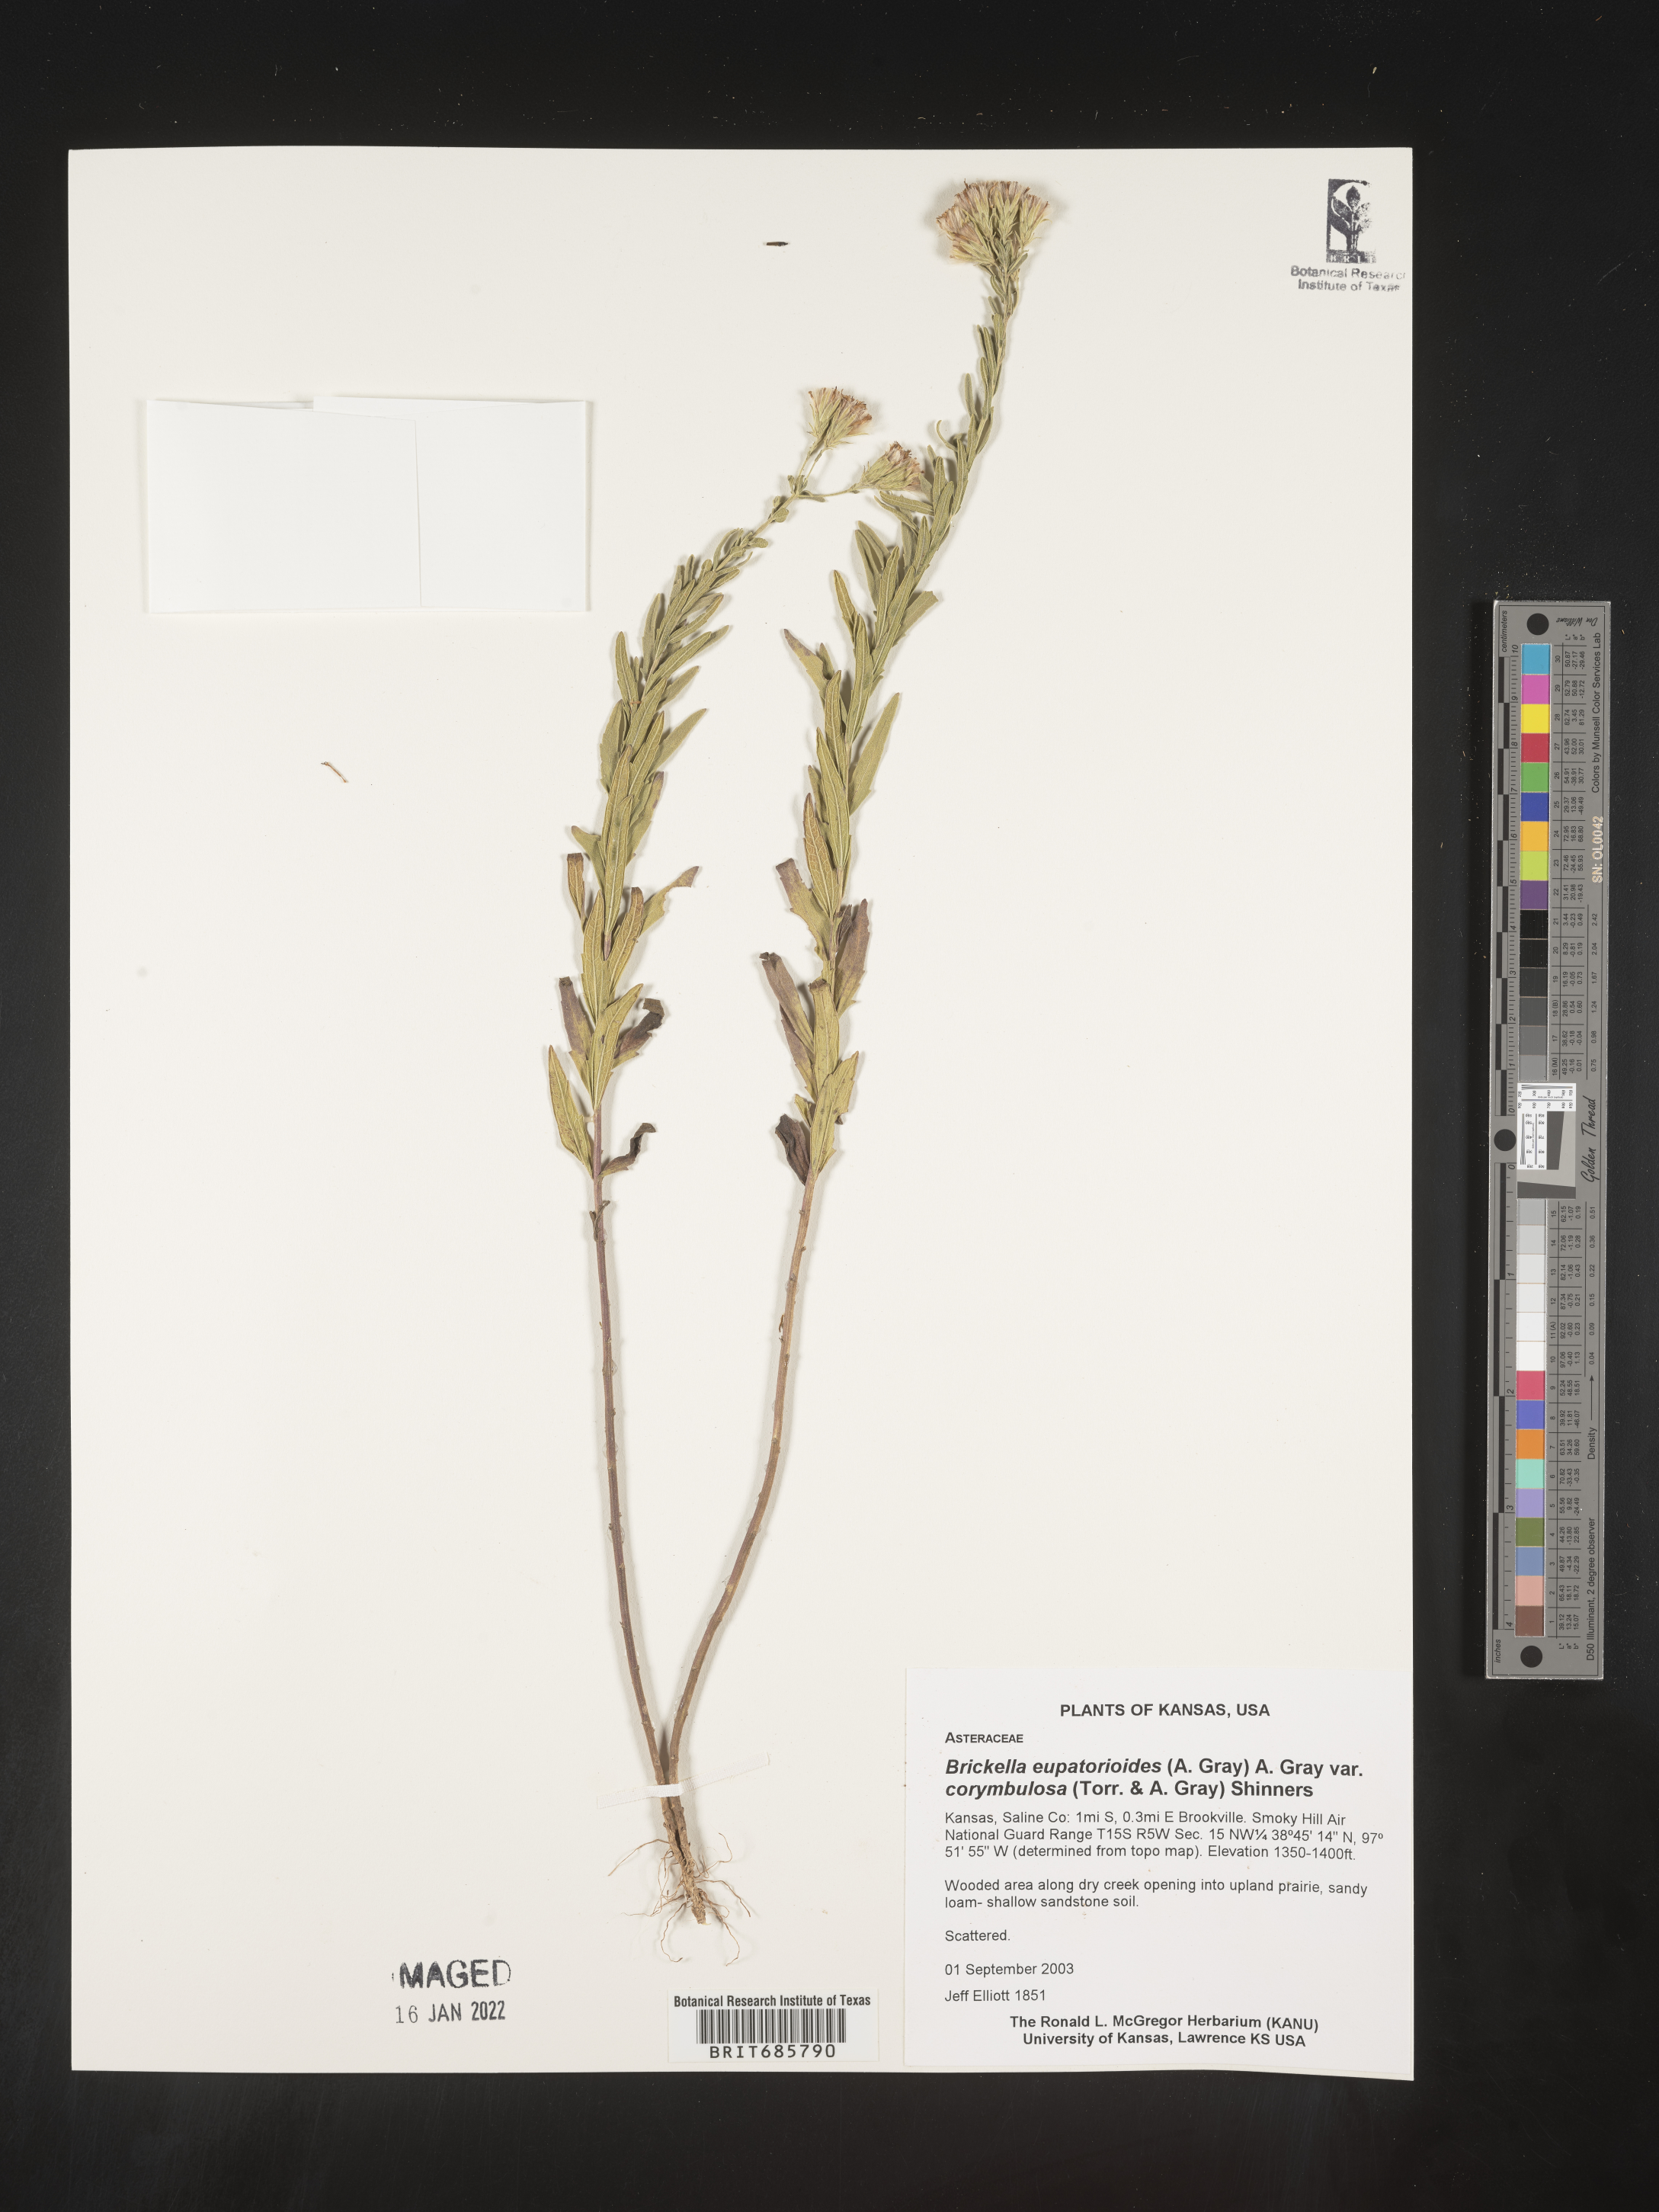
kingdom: Plantae
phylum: Tracheophyta
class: Magnoliopsida
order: Asterales
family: Asteraceae
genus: Brickellia
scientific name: Brickellia eupatorioides
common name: False boneset
